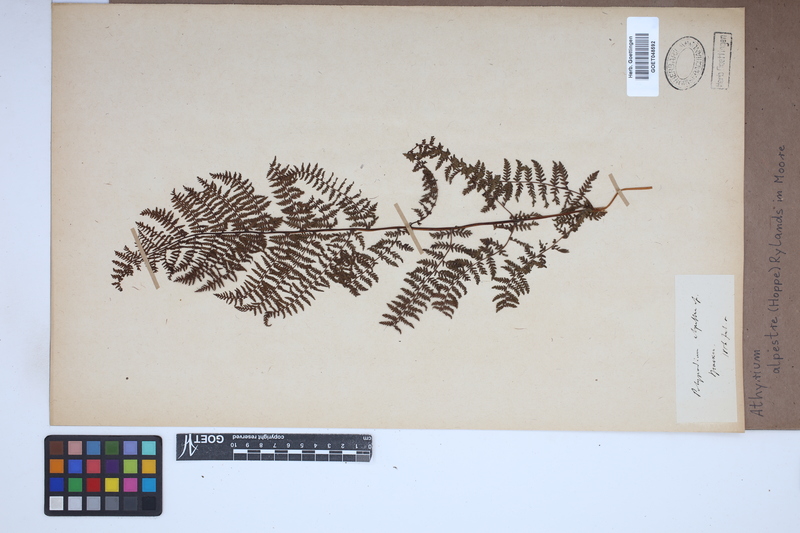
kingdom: Plantae
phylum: Tracheophyta
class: Polypodiopsida
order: Polypodiales
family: Athyriaceae
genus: Pseudathyrium
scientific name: Pseudathyrium alpestre
